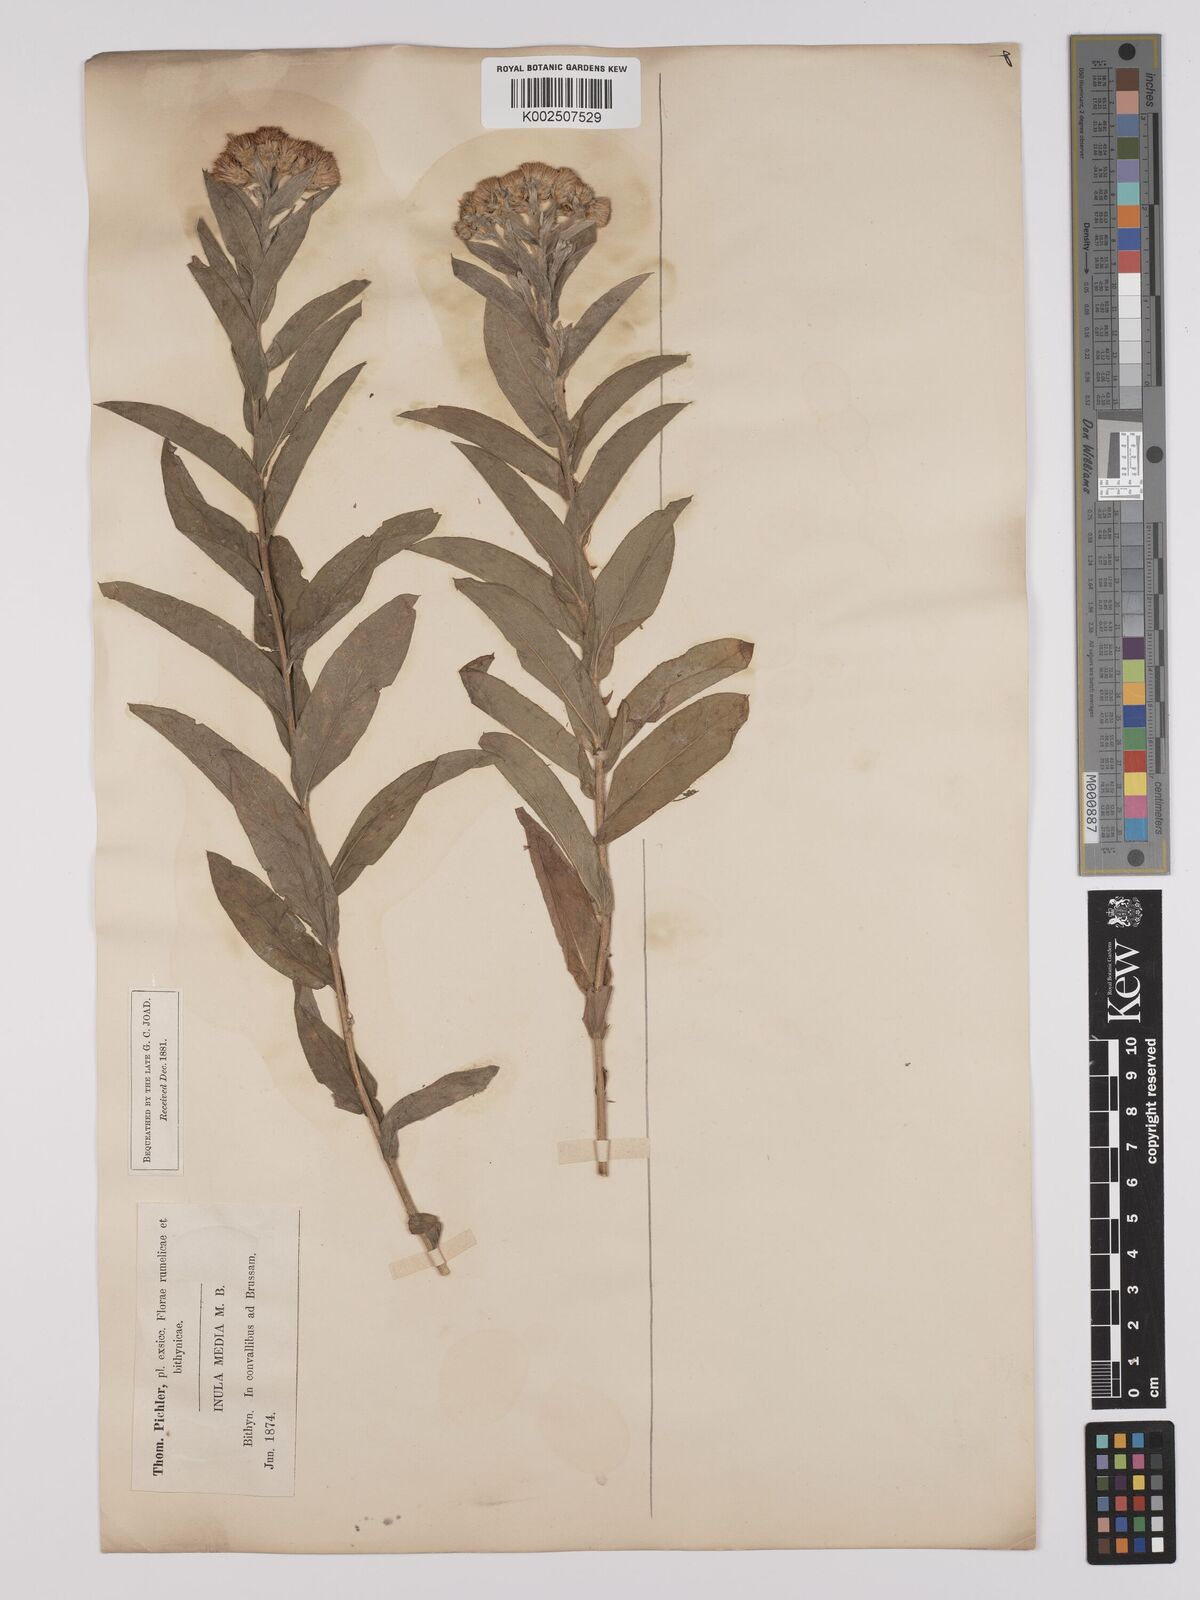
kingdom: Plantae
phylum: Tracheophyta
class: Magnoliopsida
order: Asterales
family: Asteraceae
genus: Inula
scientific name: Inula
